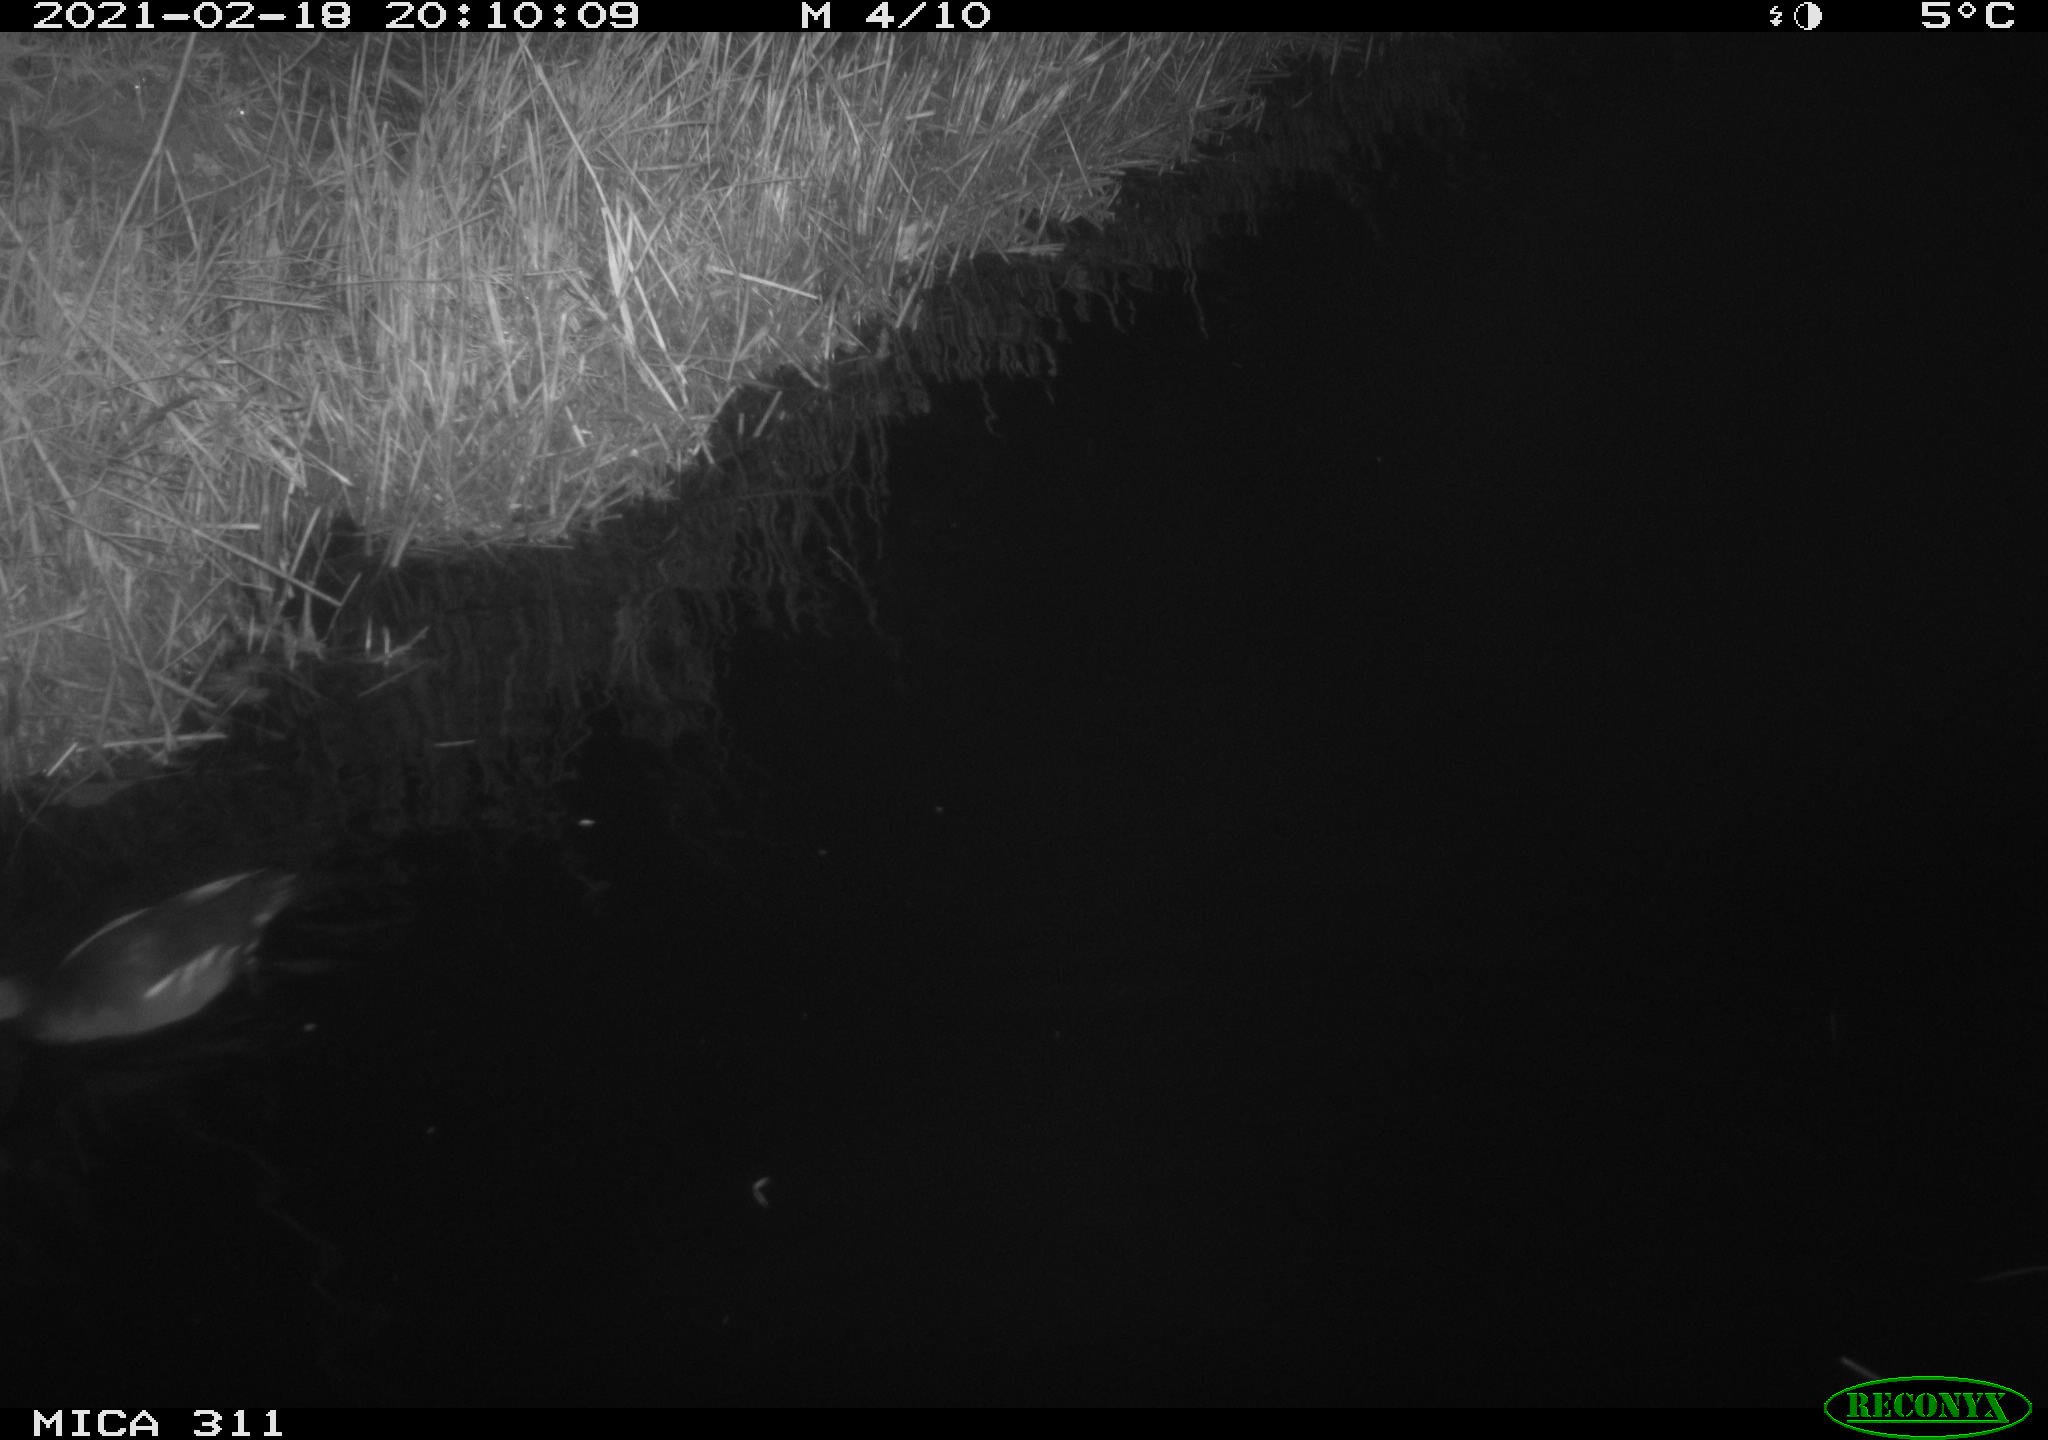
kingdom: Animalia
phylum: Chordata
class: Aves
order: Gruiformes
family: Rallidae
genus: Gallinula
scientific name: Gallinula chloropus
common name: Common moorhen
